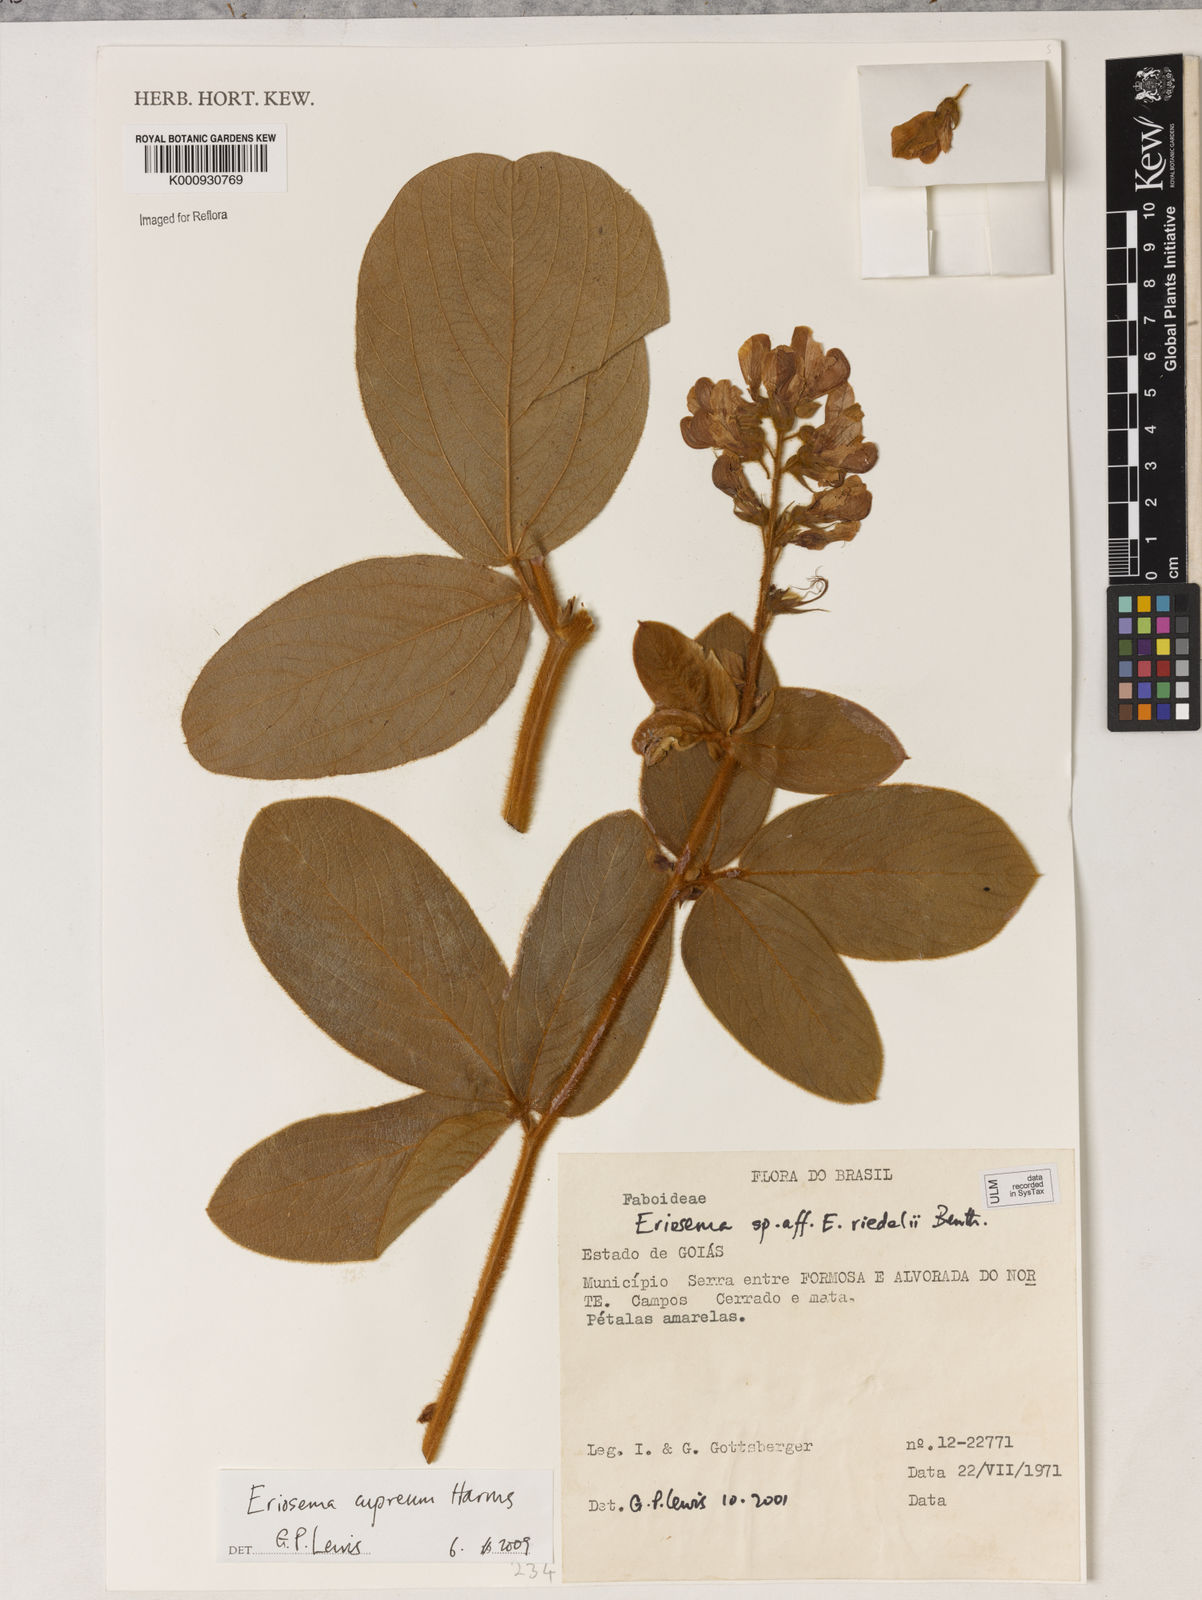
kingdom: Plantae
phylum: Tracheophyta
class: Magnoliopsida
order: Fabales
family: Fabaceae
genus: Eriosema
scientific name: Eriosema cupreum
